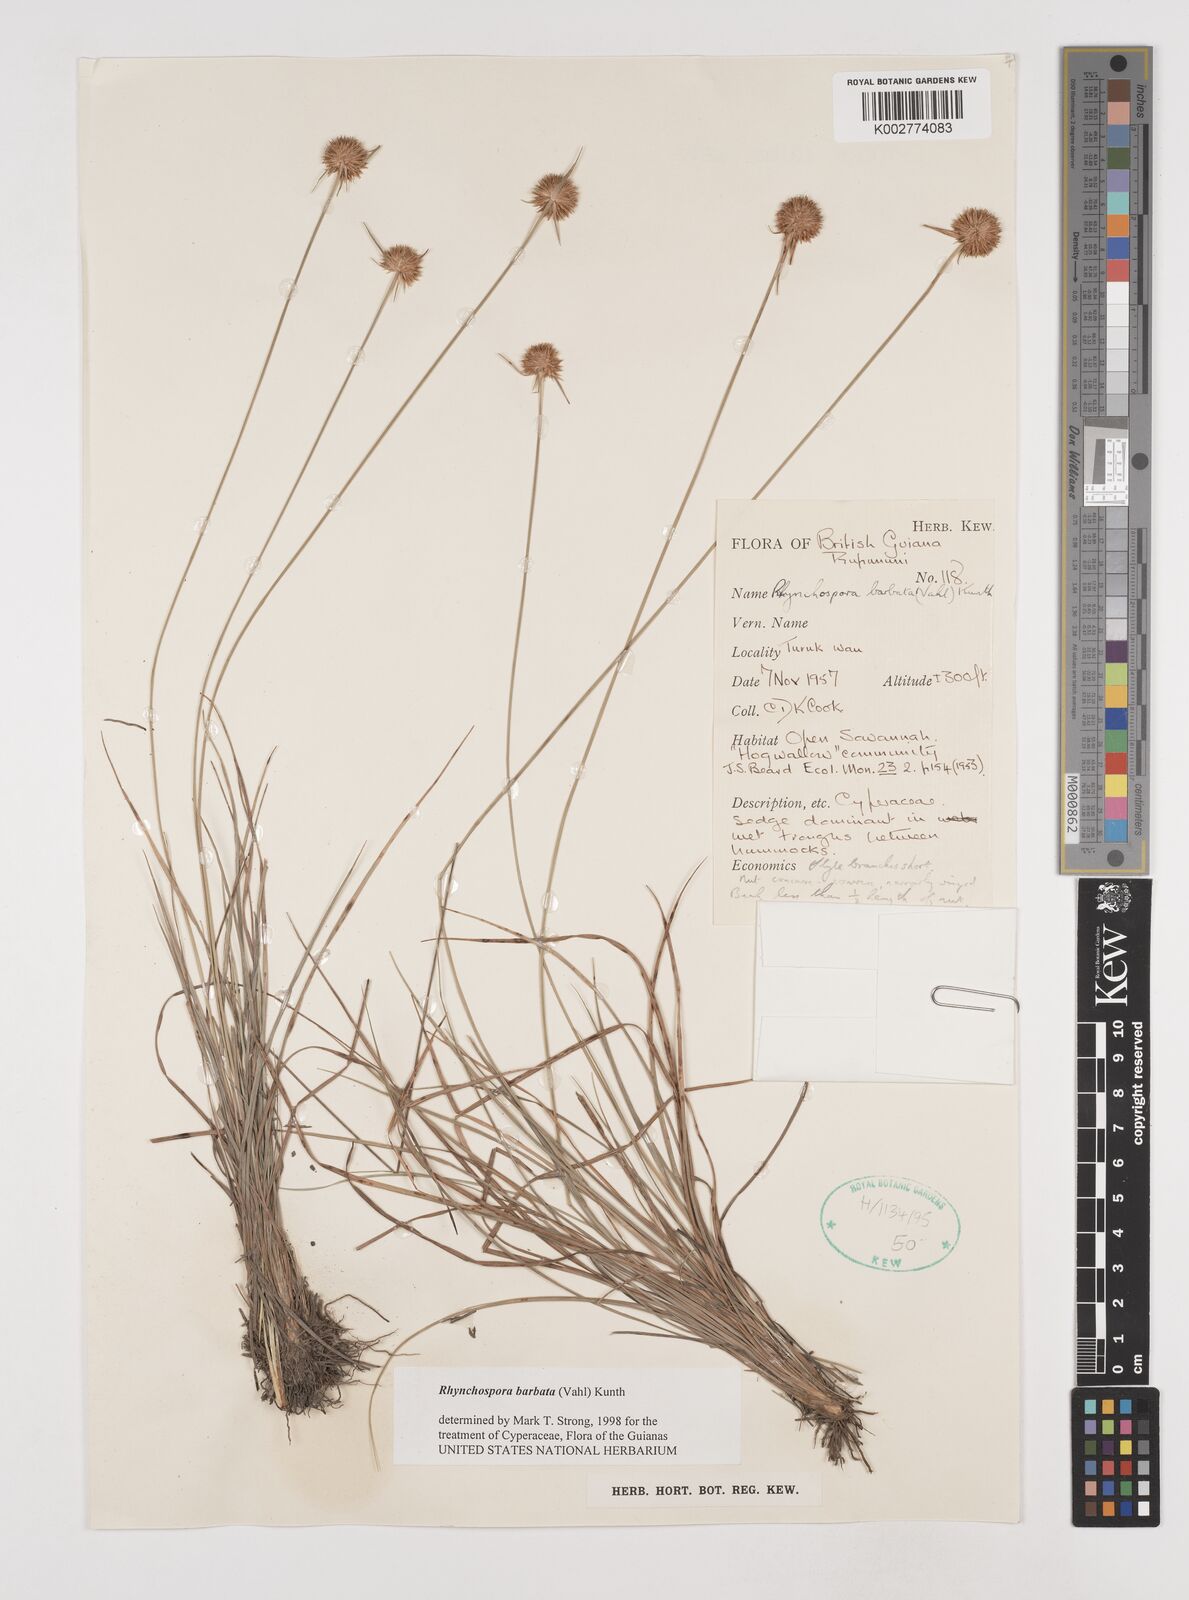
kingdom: Plantae
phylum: Tracheophyta
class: Liliopsida
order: Poales
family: Cyperaceae
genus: Rhynchospora
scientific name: Rhynchospora barbata
